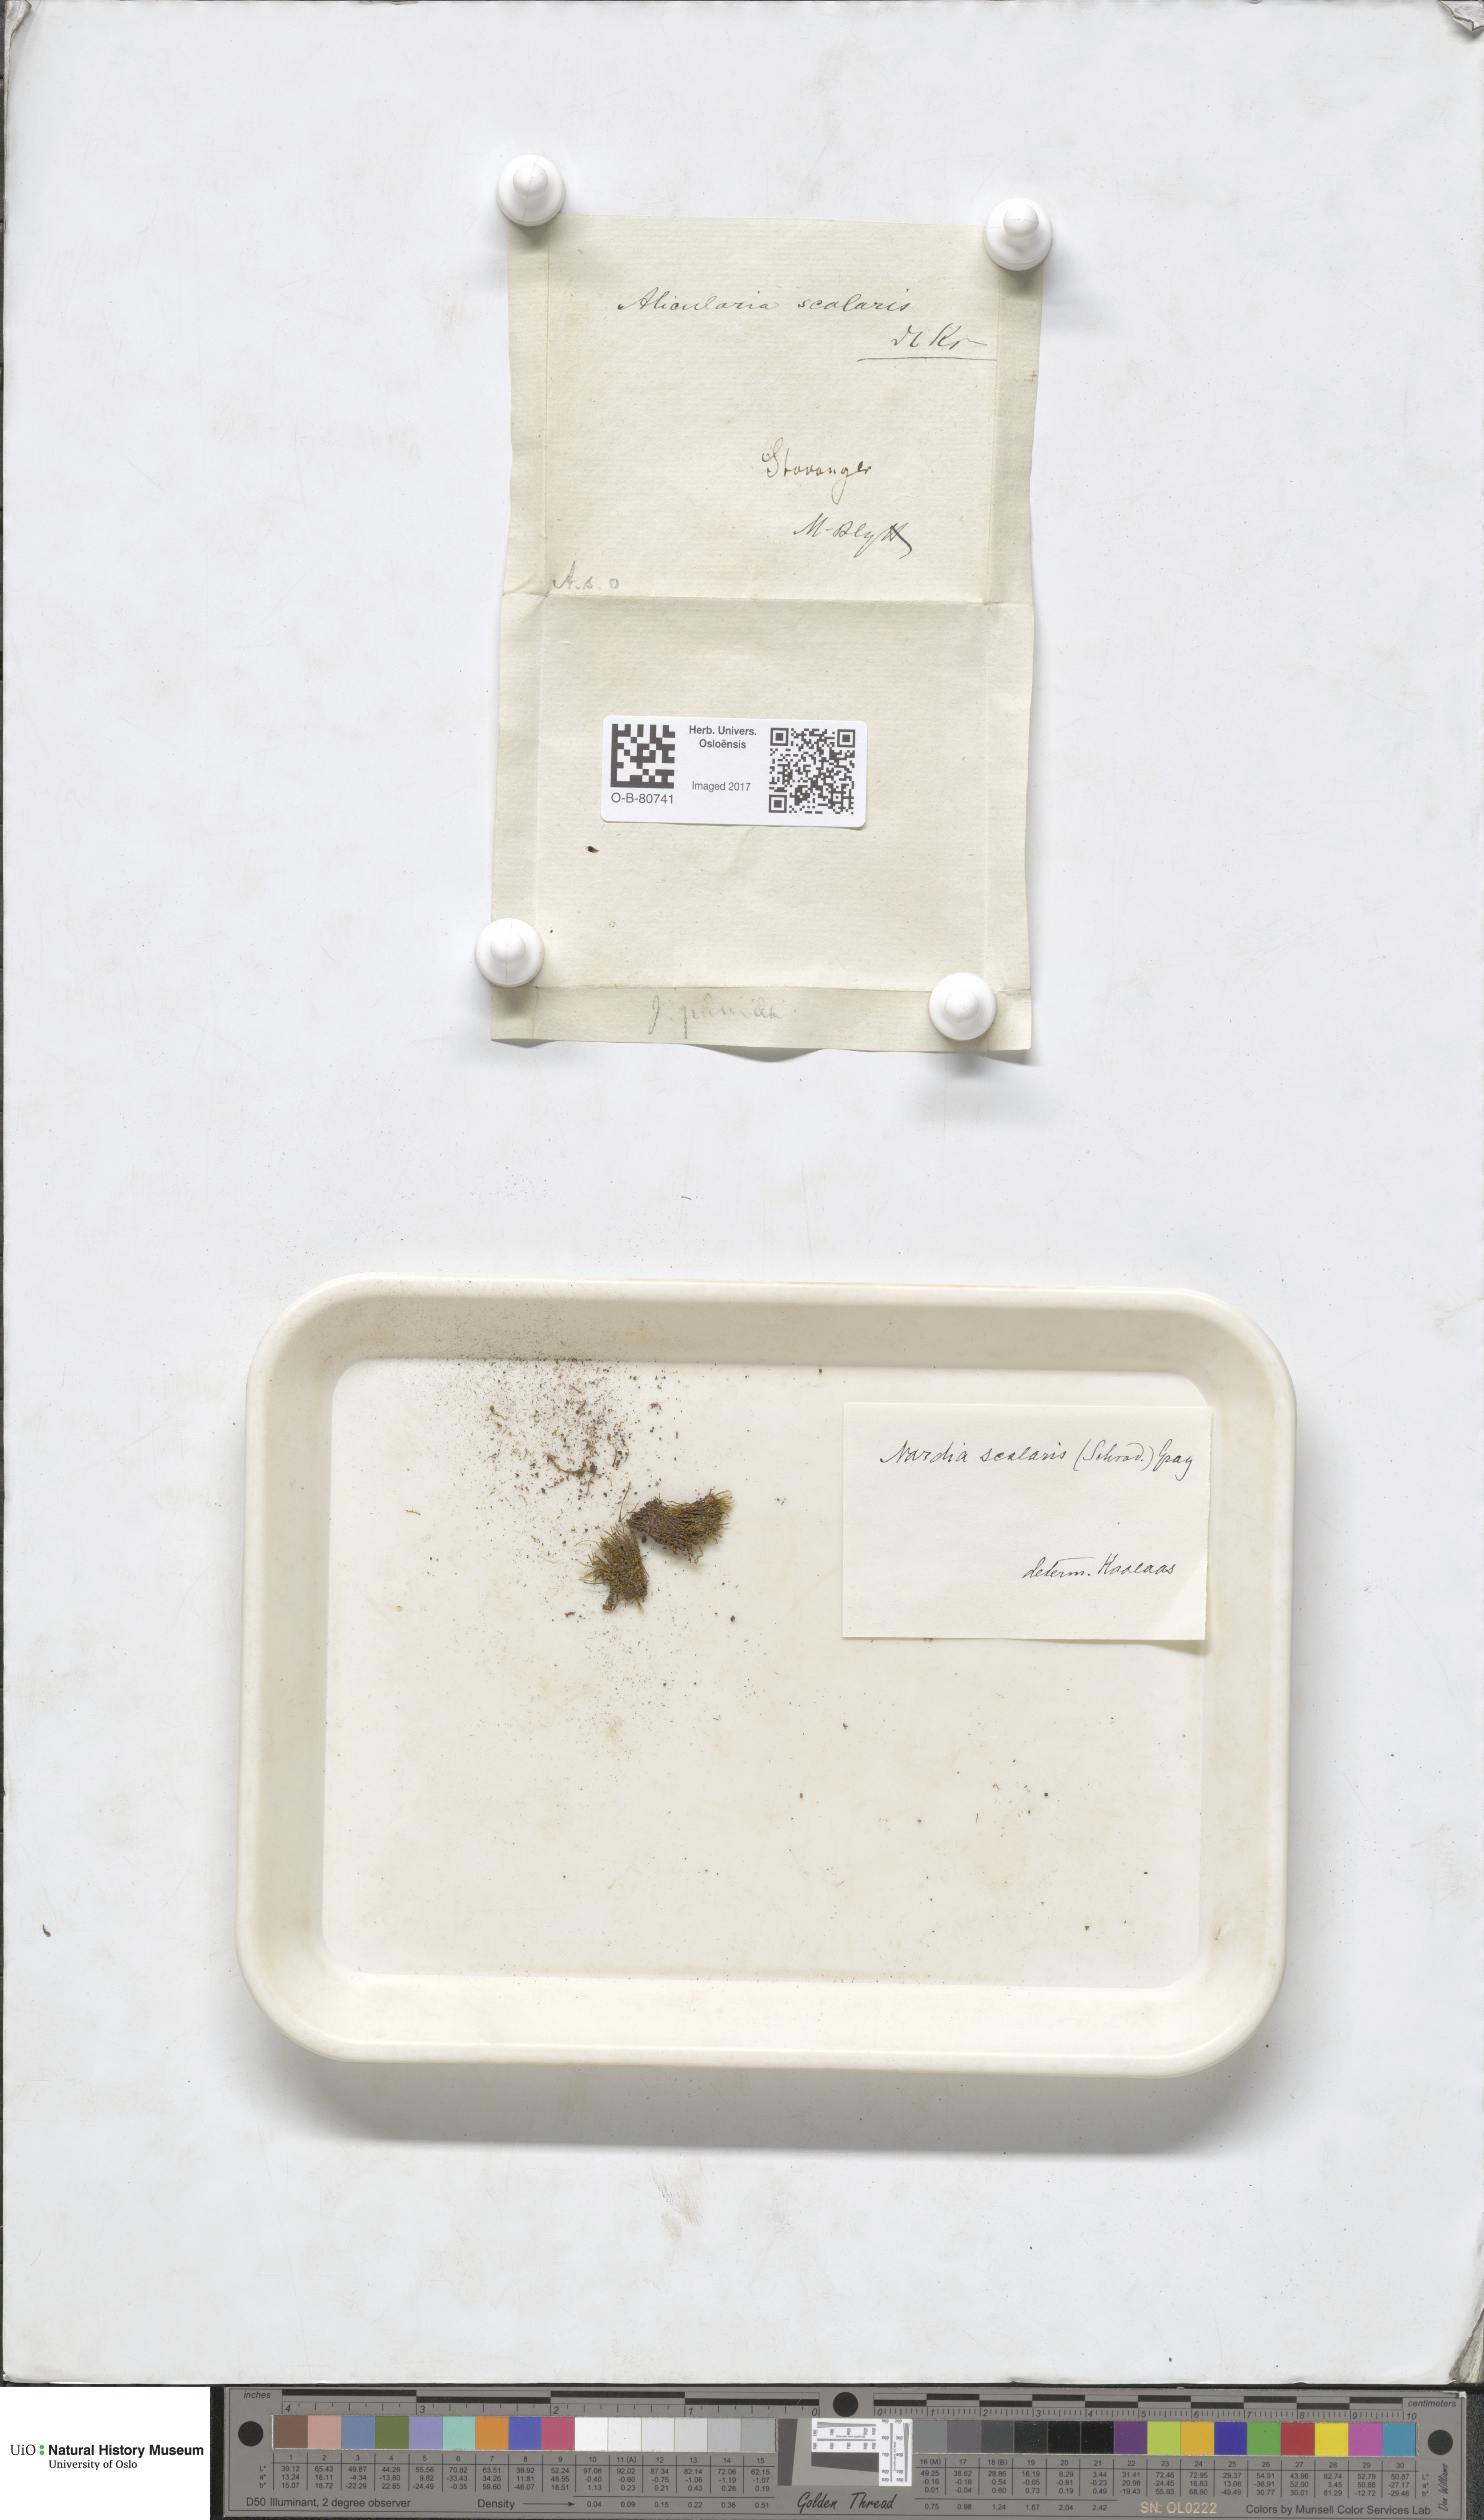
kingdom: Plantae
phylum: Marchantiophyta
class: Jungermanniopsida
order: Jungermanniales
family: Gymnomitriaceae
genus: Nardia
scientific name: Nardia scalaris
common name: Ladder flapwort
